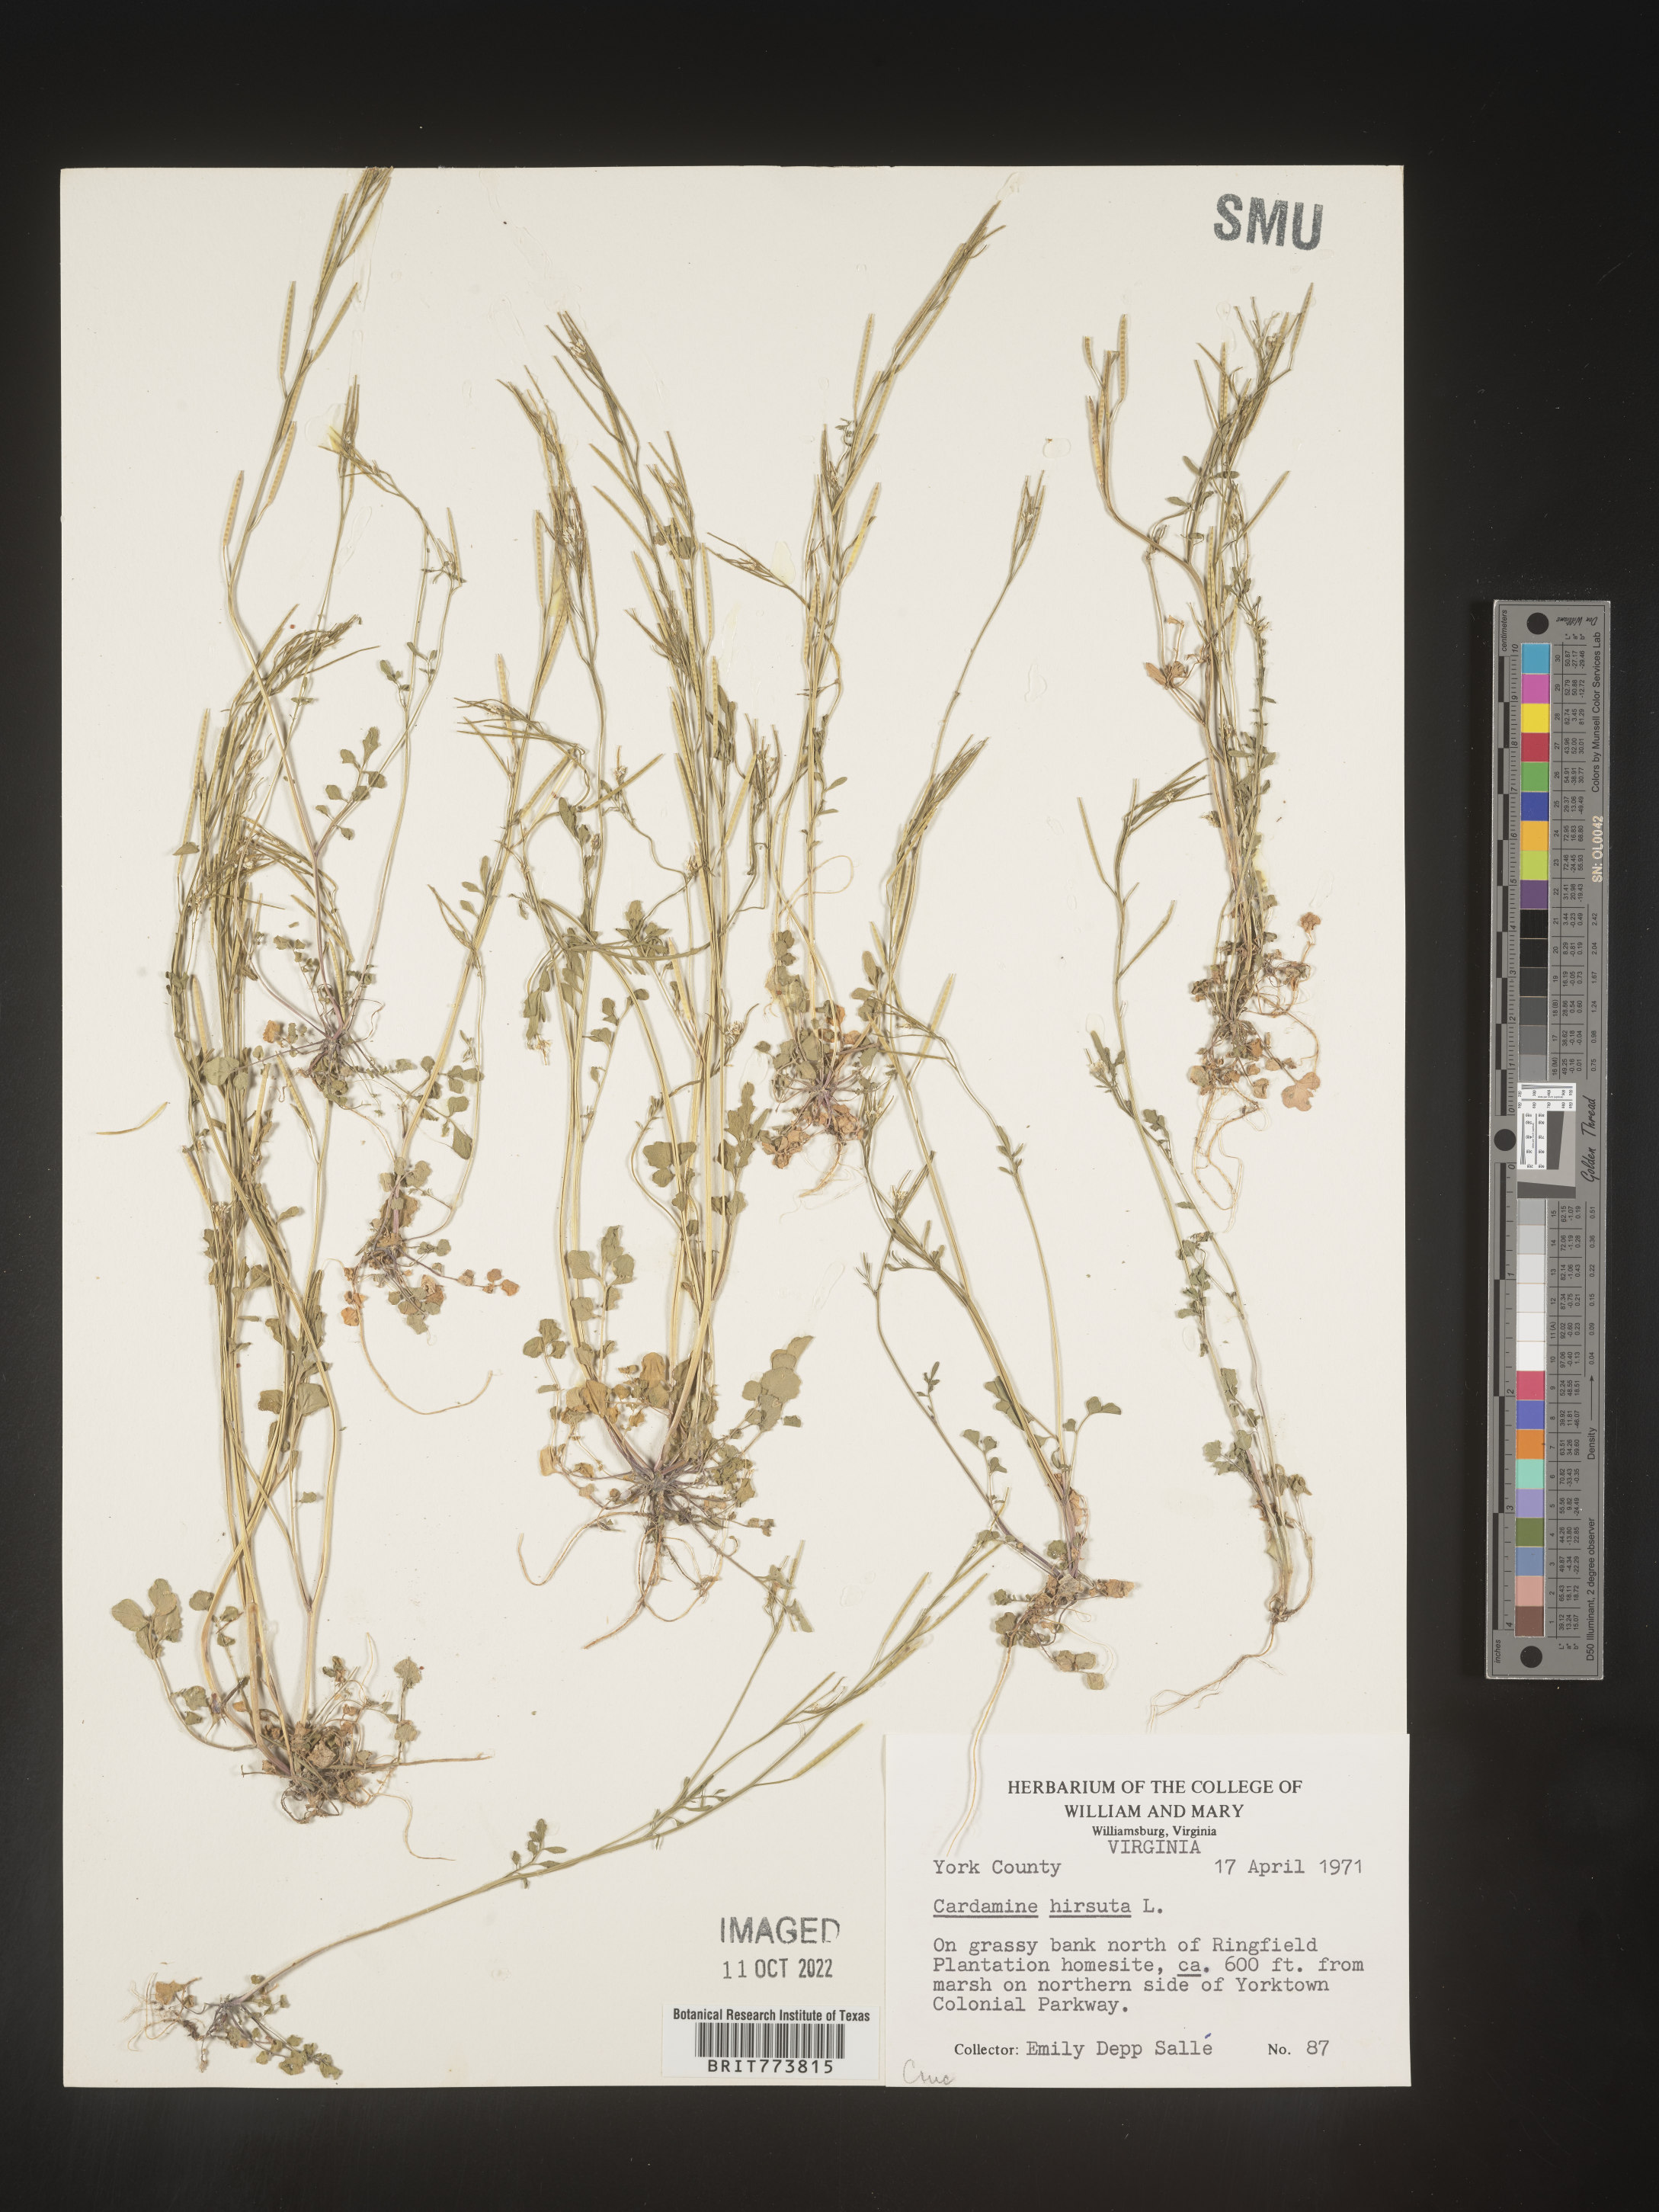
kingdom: Plantae
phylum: Tracheophyta
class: Magnoliopsida
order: Brassicales
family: Brassicaceae
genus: Cardamine
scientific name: Cardamine hirsuta
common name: Hairy bittercress
